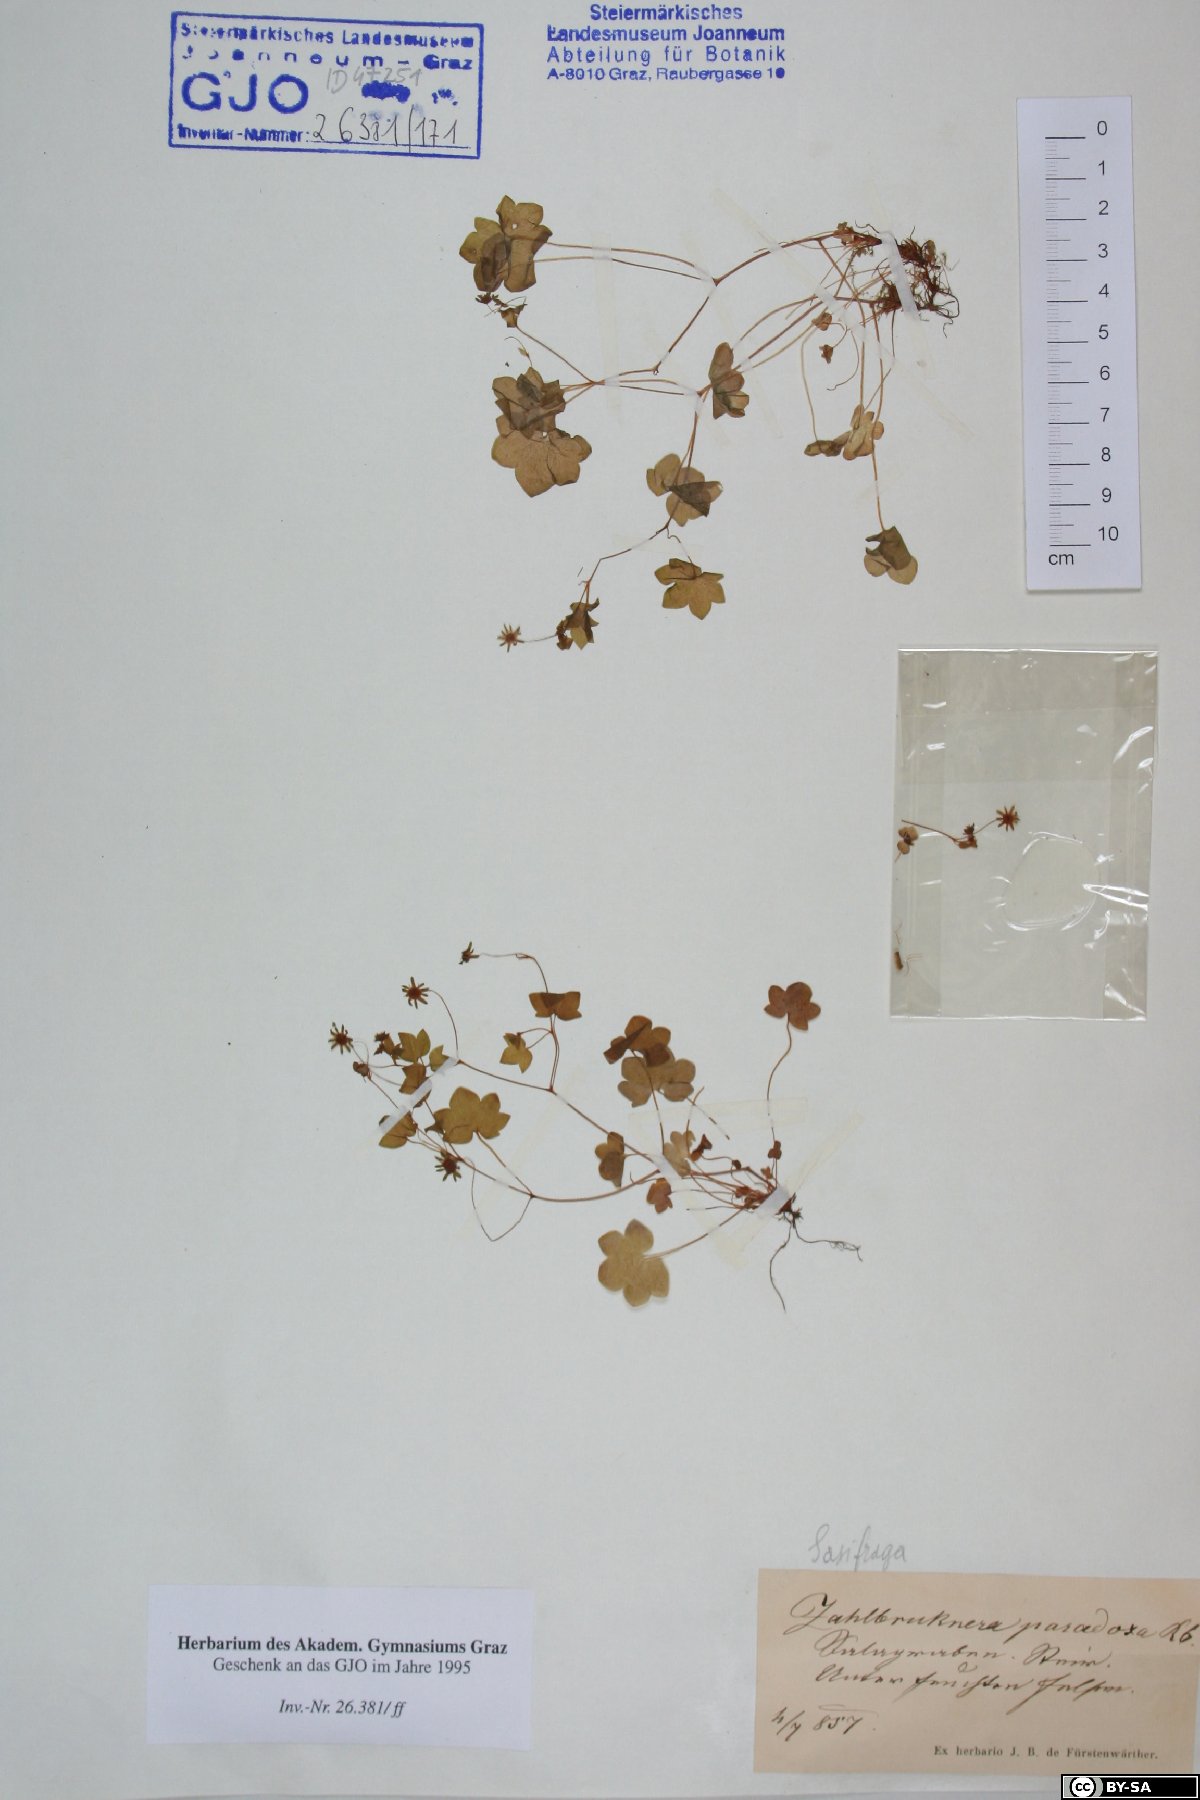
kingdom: Plantae
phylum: Tracheophyta
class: Magnoliopsida
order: Saxifragales
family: Saxifragaceae
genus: Saxifraga
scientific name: Saxifraga paradoxa
